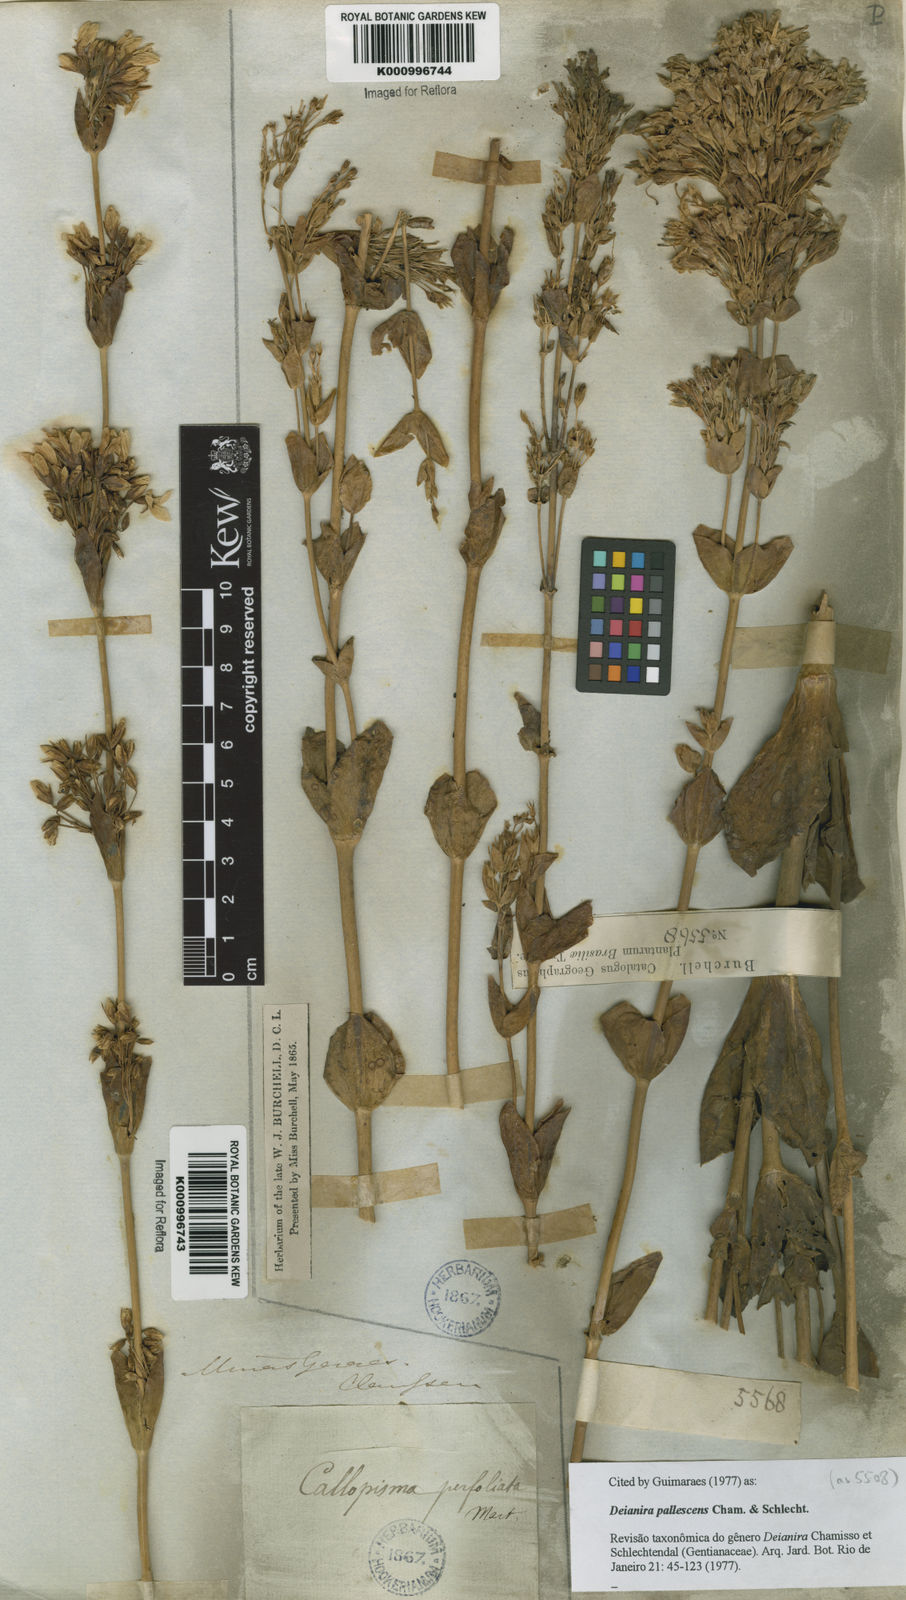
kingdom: Plantae
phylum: Tracheophyta
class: Magnoliopsida
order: Gentianales
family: Gentianaceae
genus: Deianira
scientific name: Deianira pallescens
